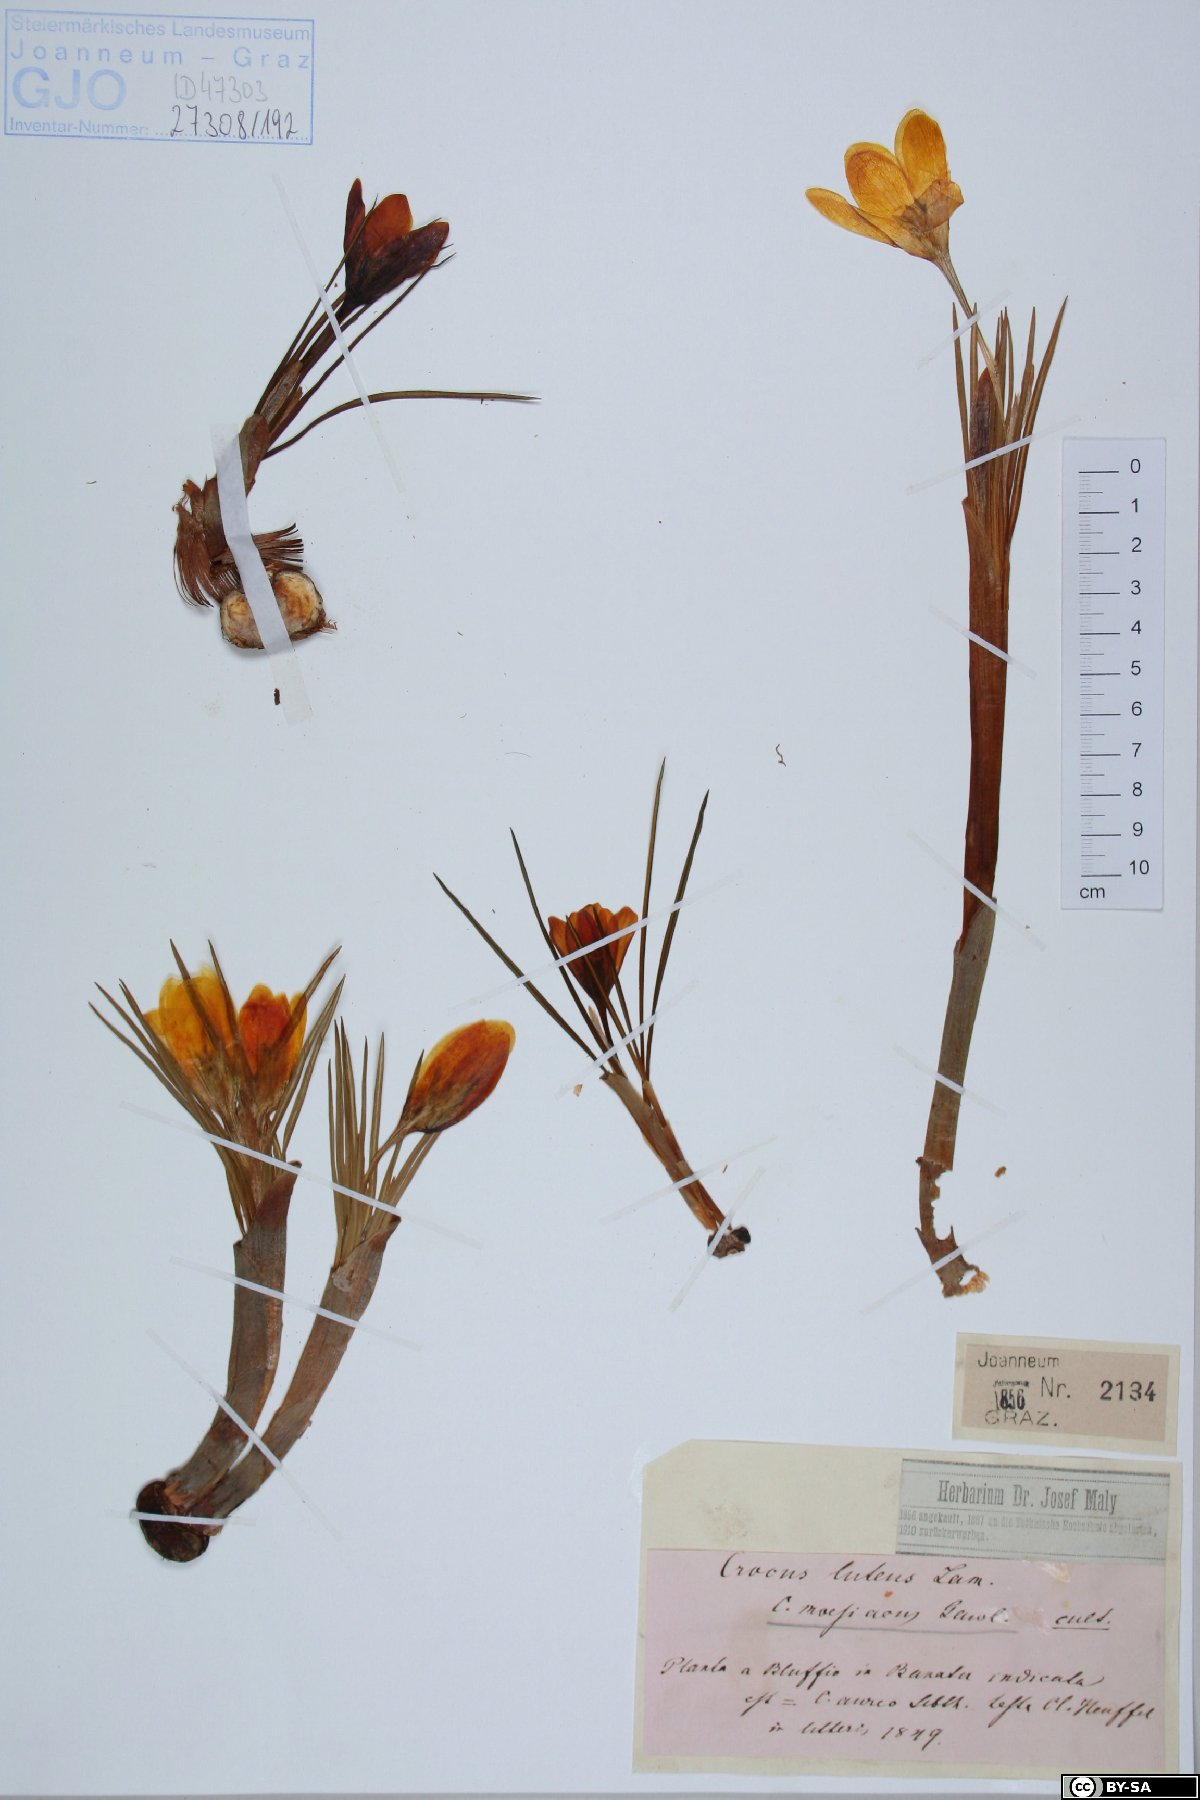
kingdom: Plantae
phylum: Tracheophyta
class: Liliopsida
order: Asparagales
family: Iridaceae
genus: Crocus
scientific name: Crocus flavus
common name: Yellow crocus
